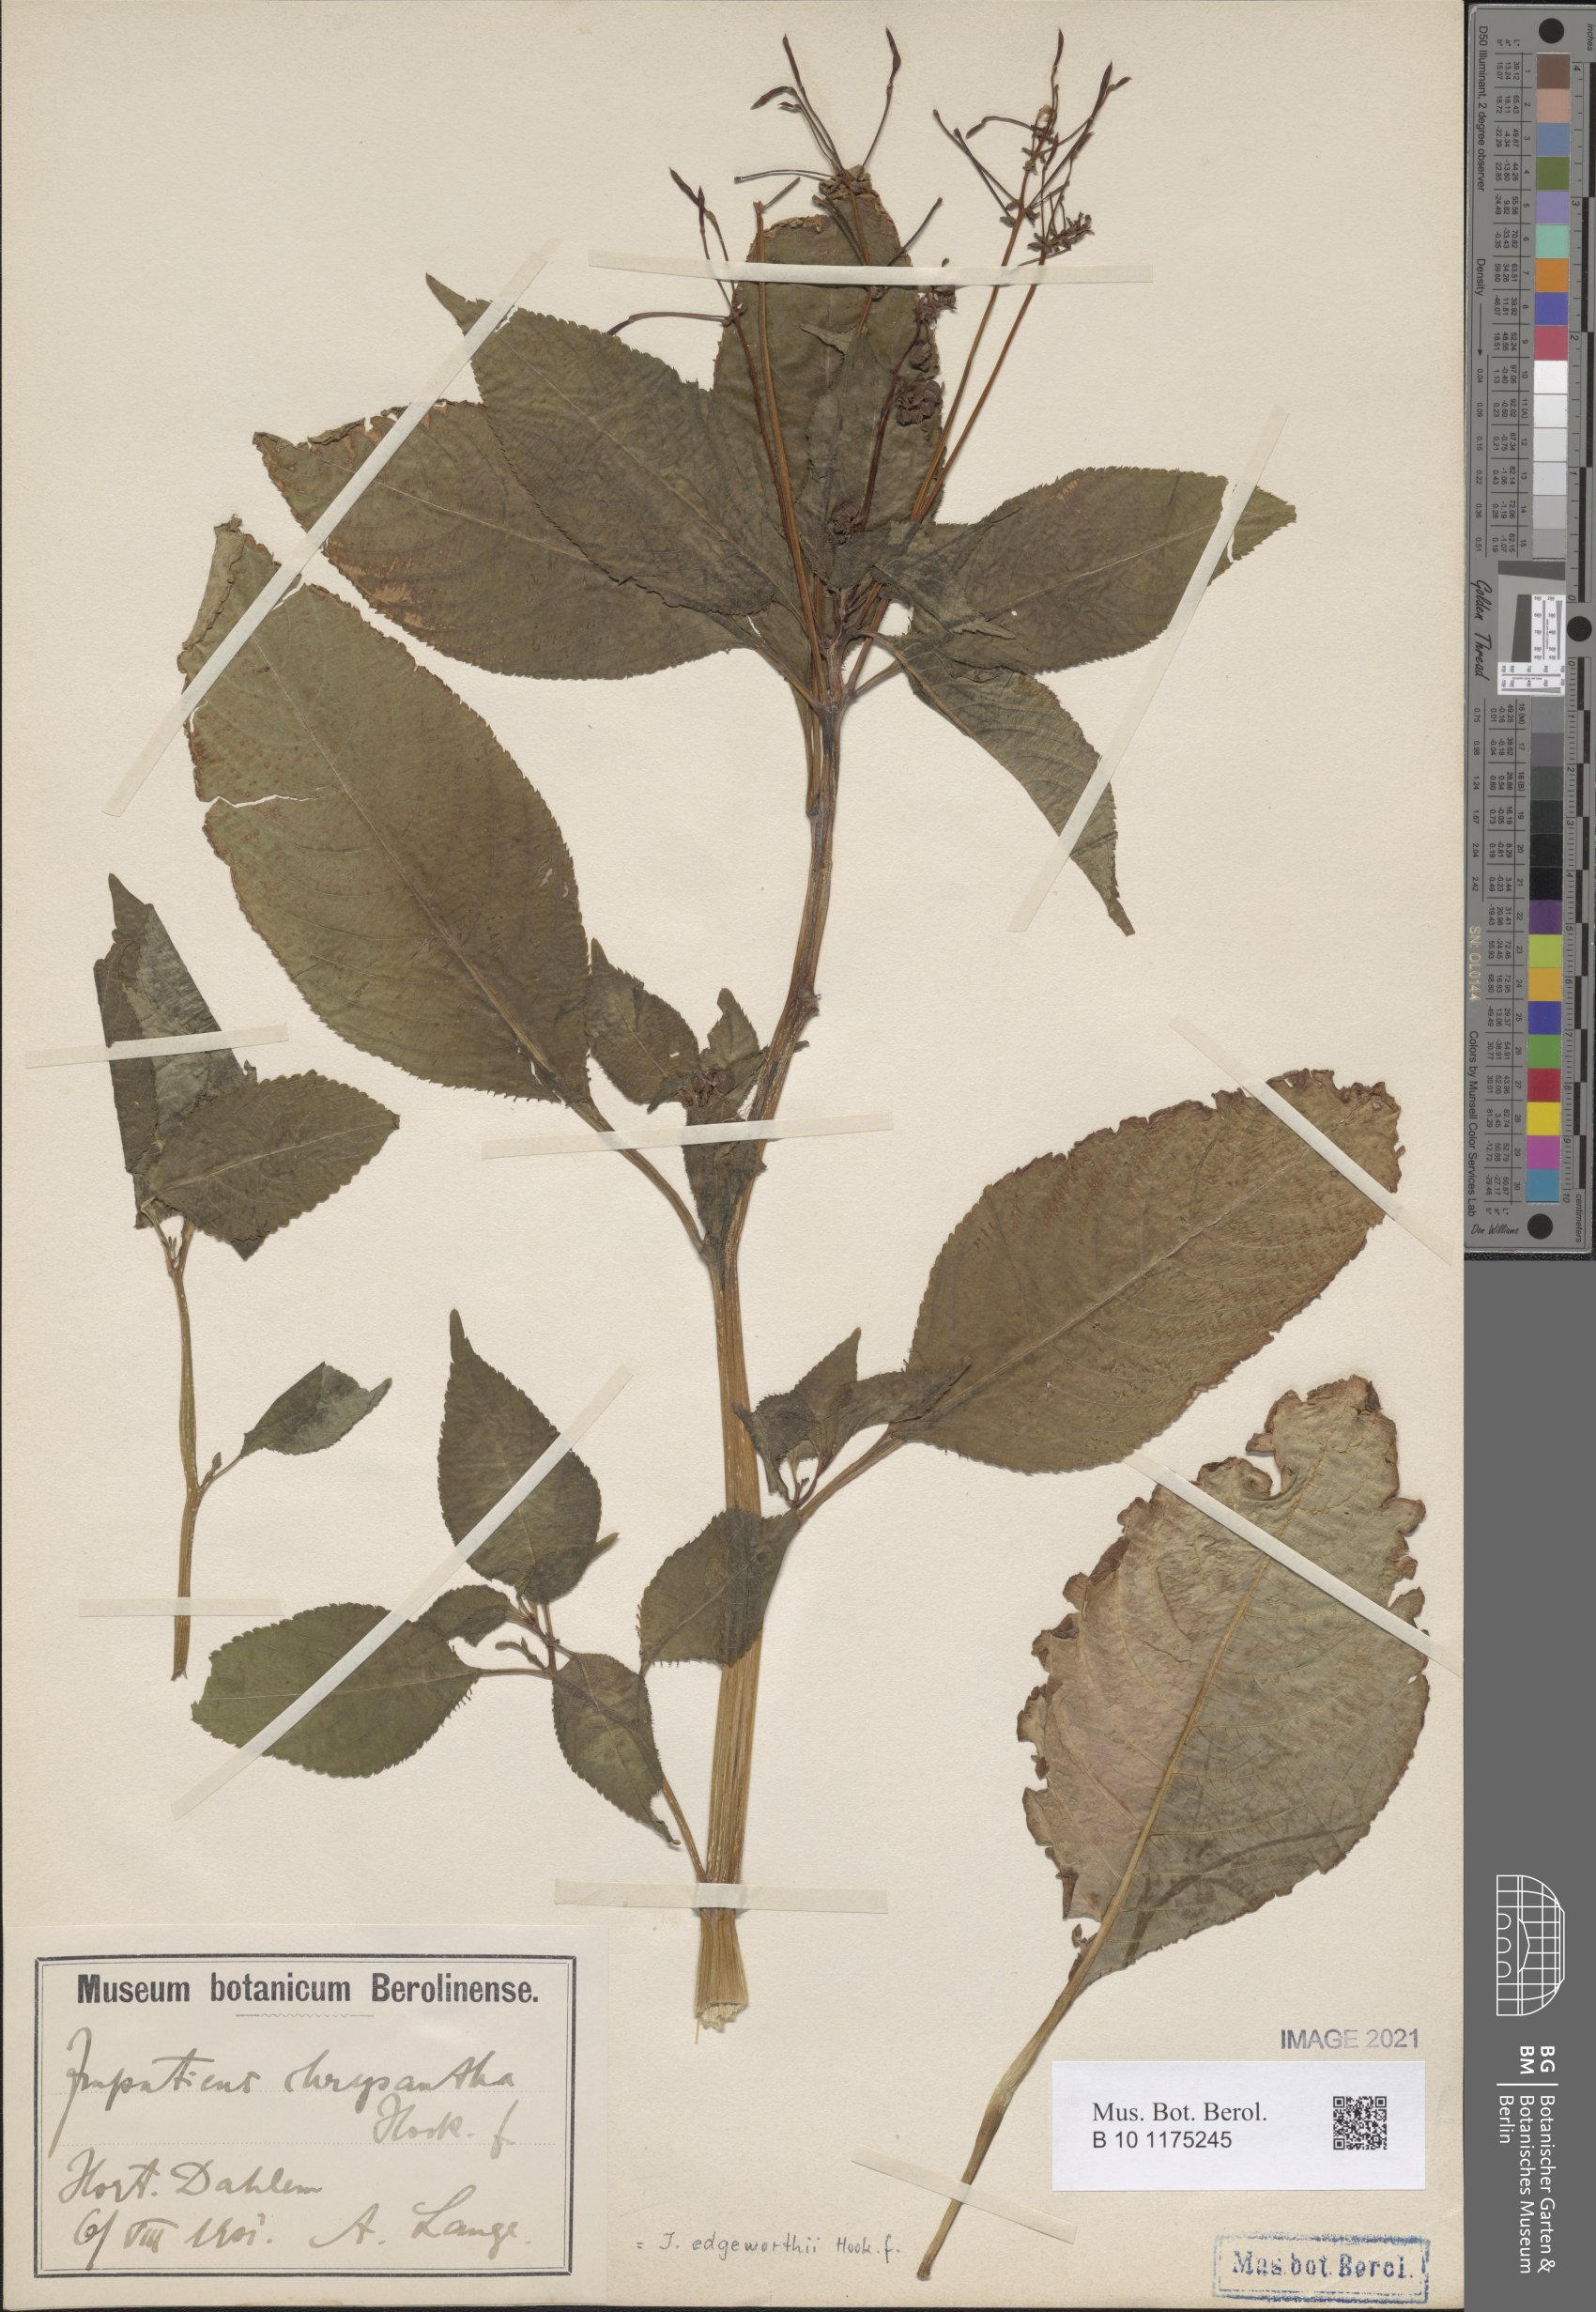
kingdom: Plantae
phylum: Tracheophyta
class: Magnoliopsida
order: Ericales
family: Balsaminaceae
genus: Impatiens
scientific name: Impatiens edgeworthii
